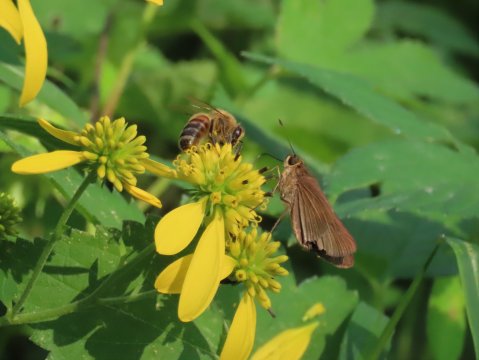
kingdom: Animalia
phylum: Arthropoda
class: Insecta
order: Lepidoptera
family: Hesperiidae
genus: Panoquina
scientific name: Panoquina ocola
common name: Ocola Skipper
